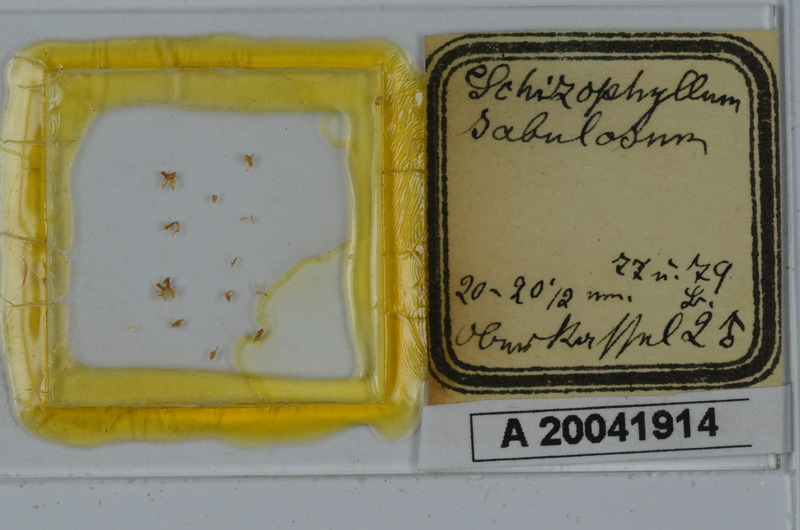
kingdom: Animalia
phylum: Arthropoda
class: Diplopoda
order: Julida
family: Julidae
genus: Schizophyllum
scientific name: Schizophyllum sabulosum
